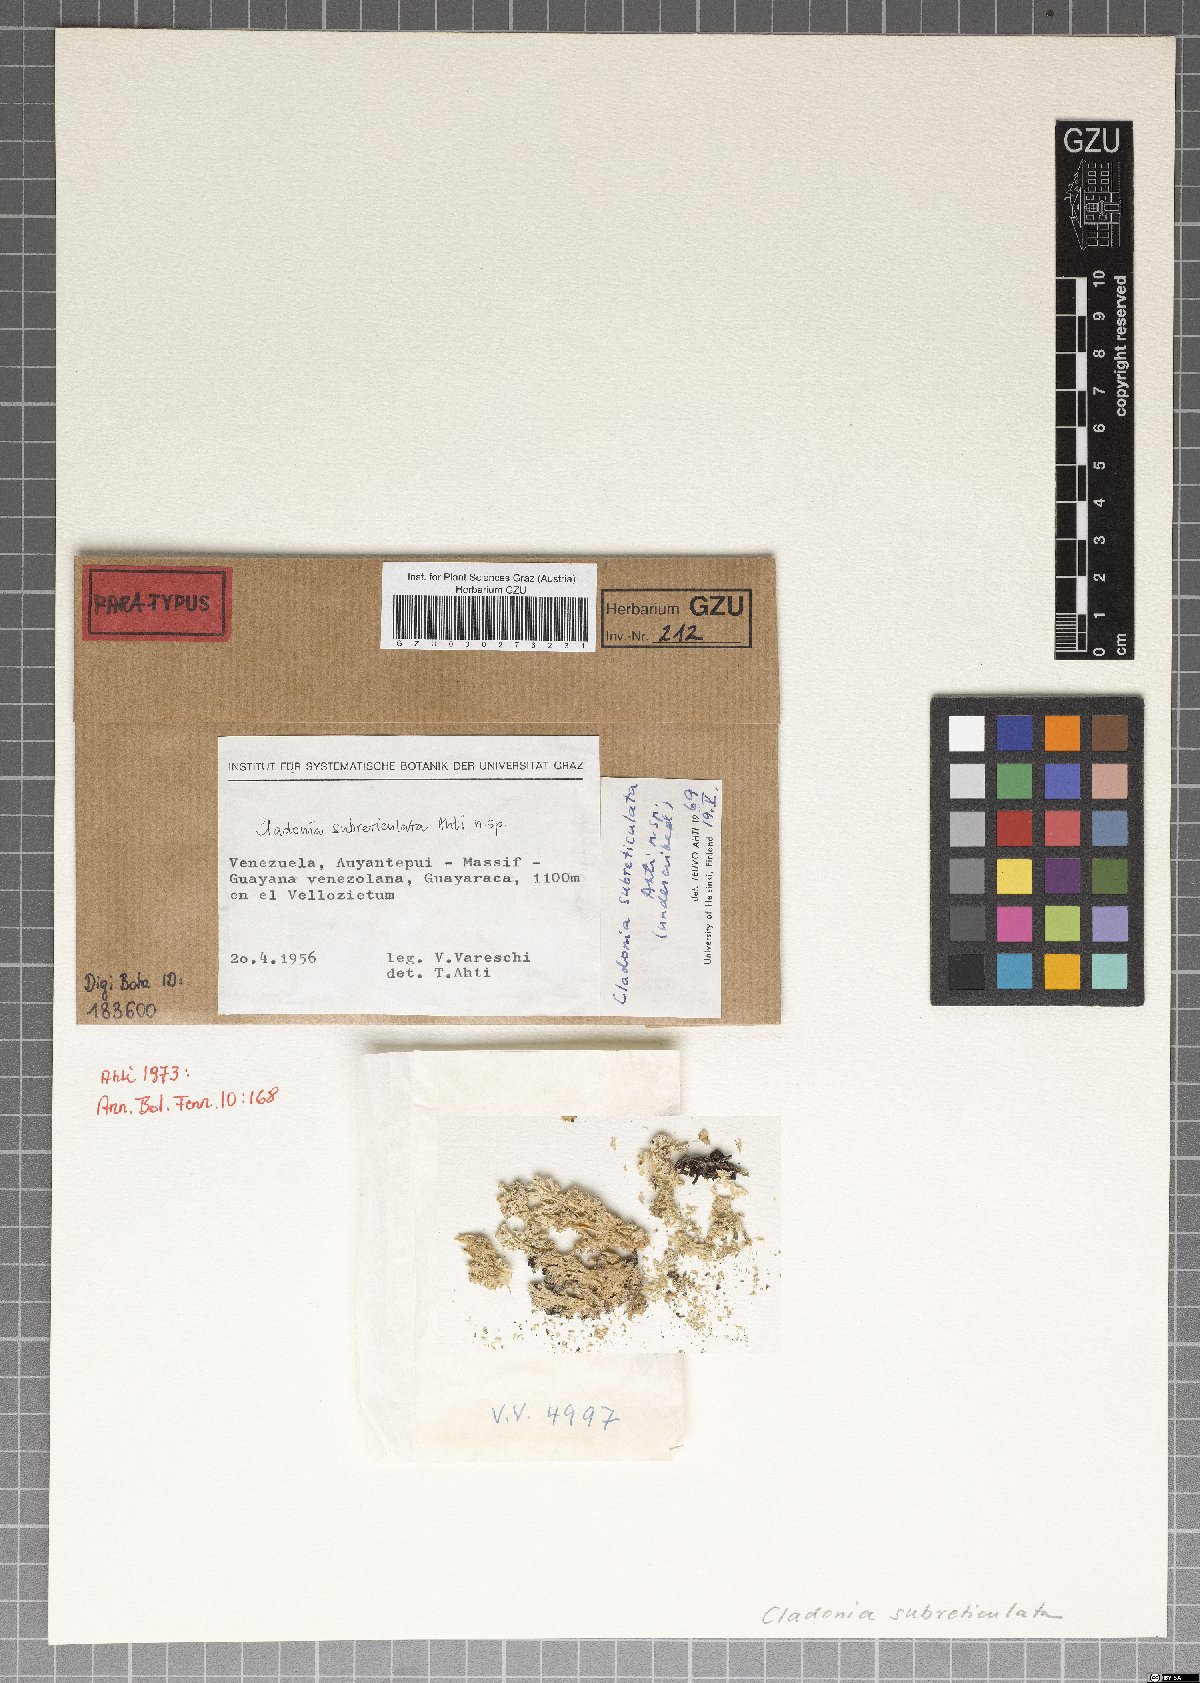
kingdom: Plantae
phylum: Marchantiophyta
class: Marchantiopsida
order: Marchantiales
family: Monocleaceae
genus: Monoclea
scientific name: Monoclea
